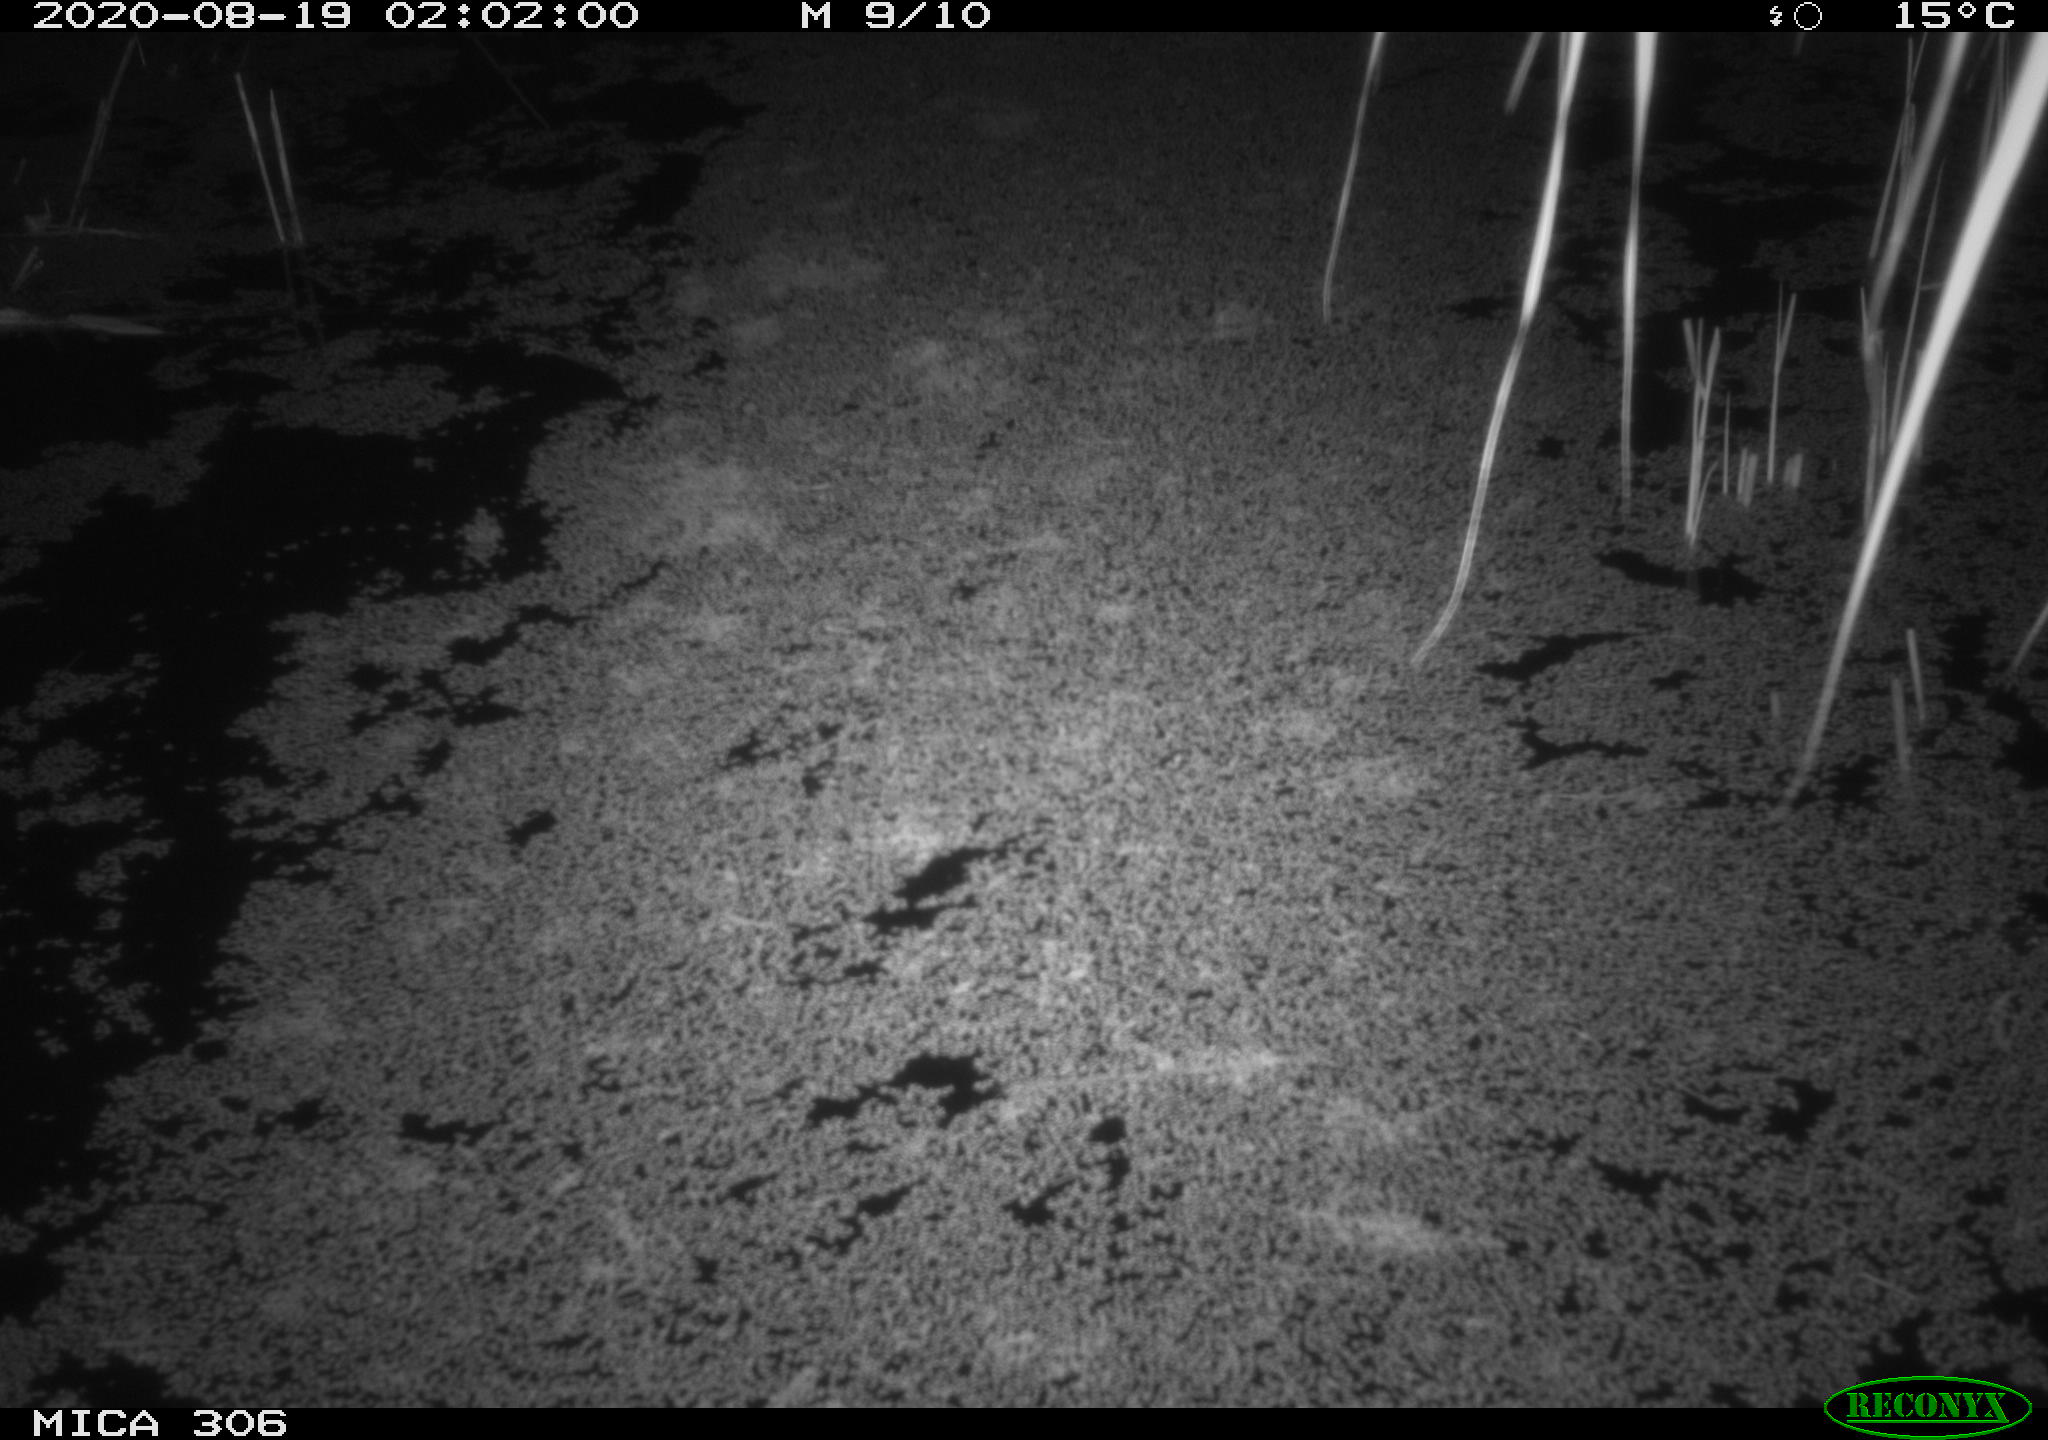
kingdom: Animalia
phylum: Chordata
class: Mammalia
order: Rodentia
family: Muridae
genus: Rattus
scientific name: Rattus norvegicus
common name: Brown rat
